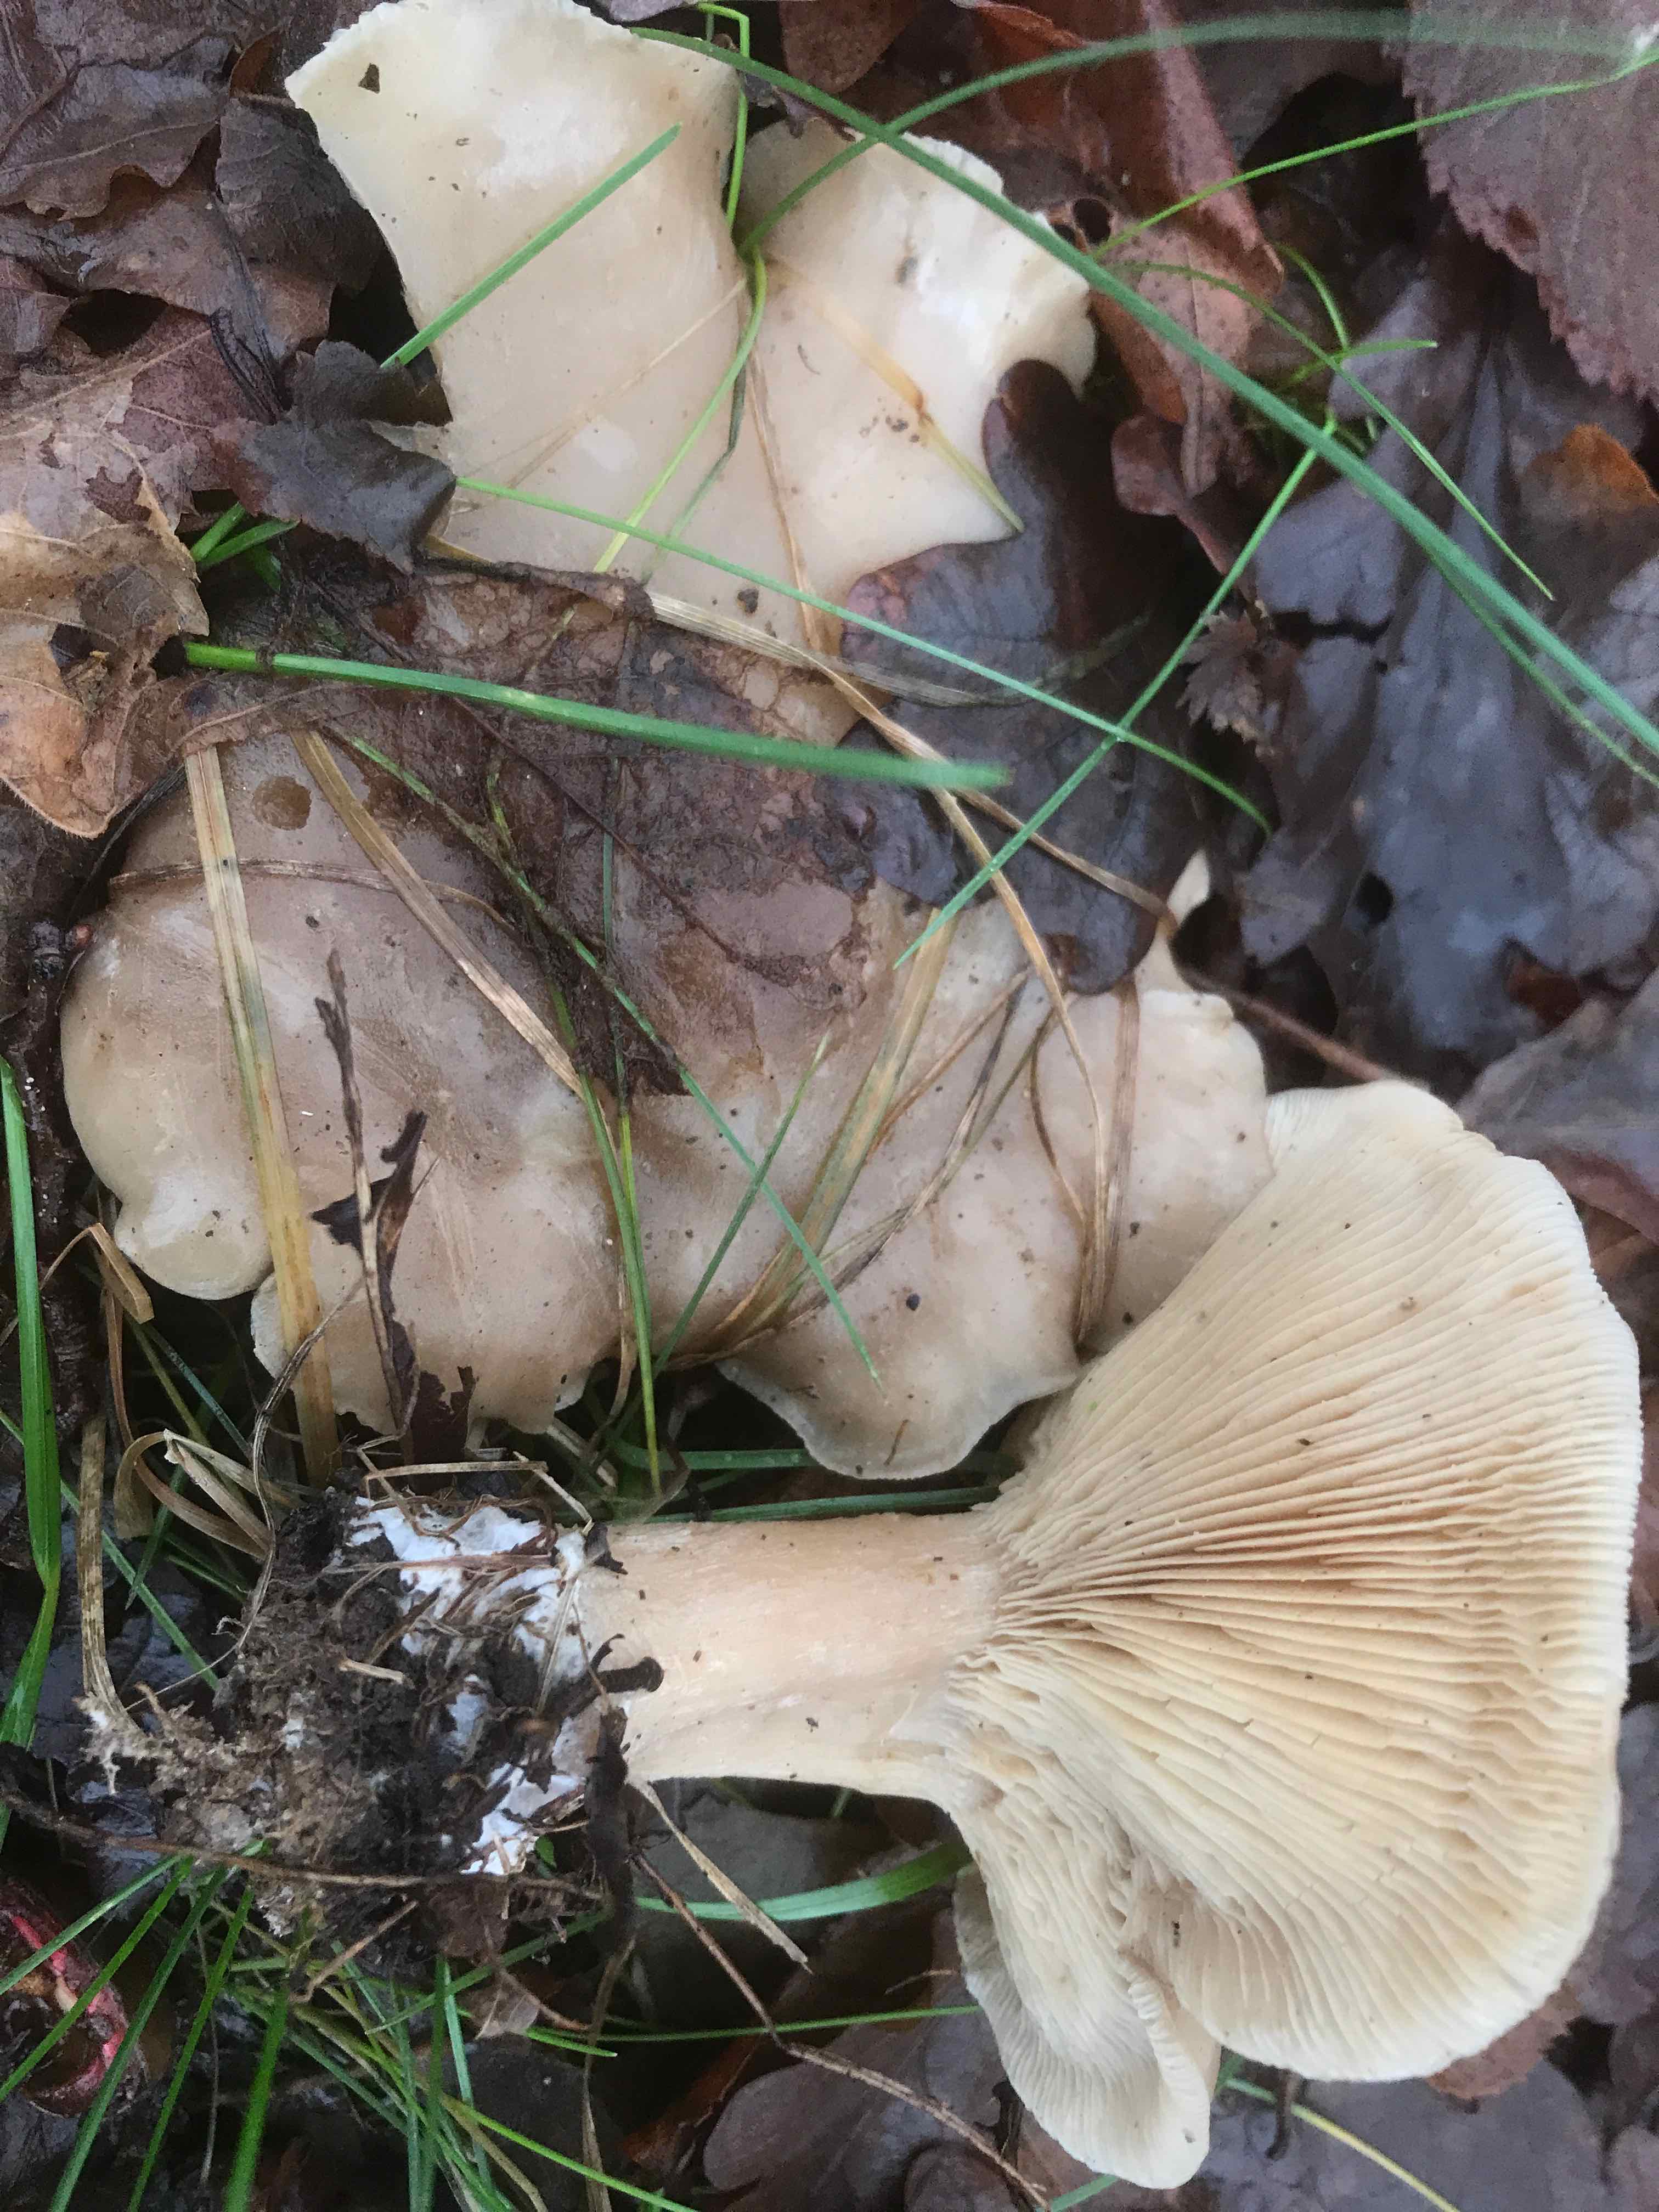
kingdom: Fungi
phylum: Basidiomycota
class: Agaricomycetes
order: Agaricales
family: Tricholomataceae
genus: Lepista
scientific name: Lepista personata
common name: bleg hekseringshat
